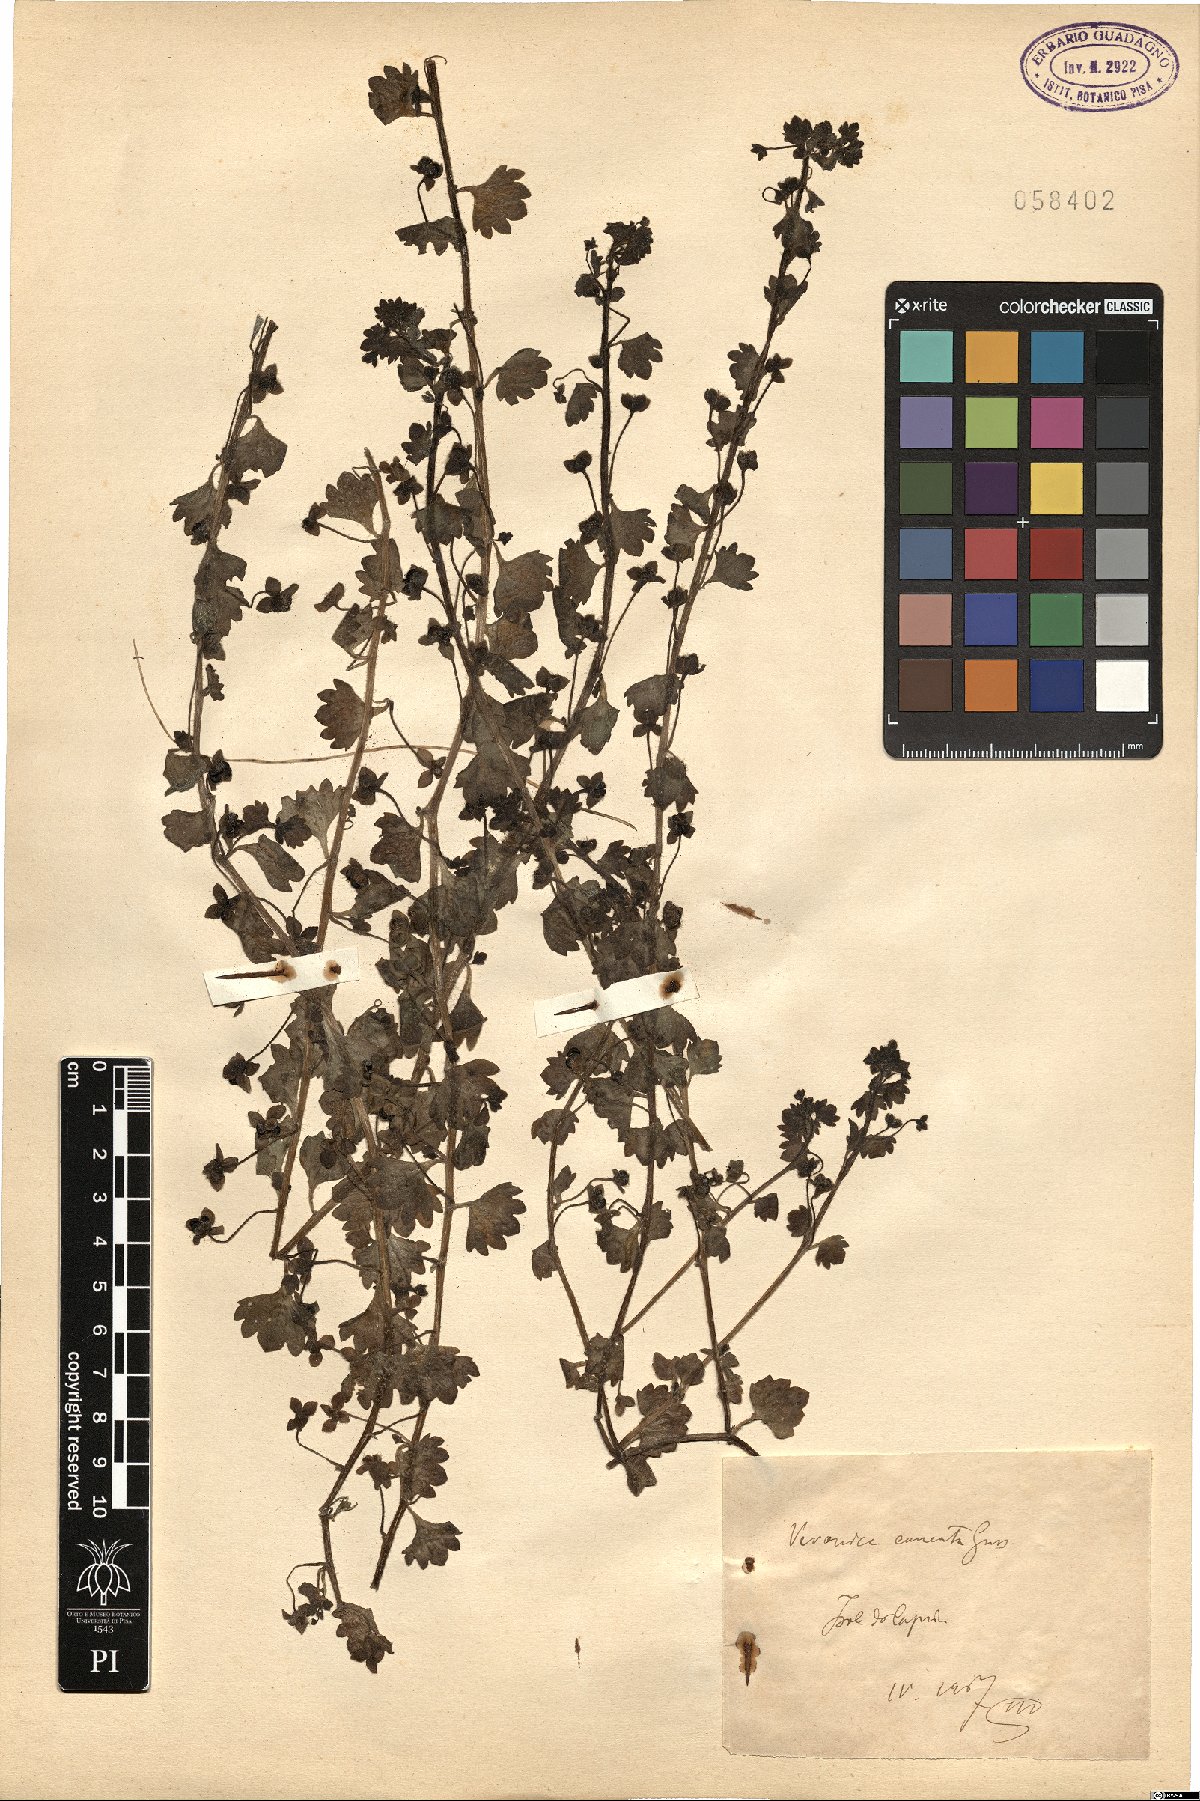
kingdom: Plantae
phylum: Tracheophyta
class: Magnoliopsida
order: Lamiales
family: Plantaginaceae
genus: Veronica
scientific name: Veronica cymbalaria
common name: Pale speedwell
